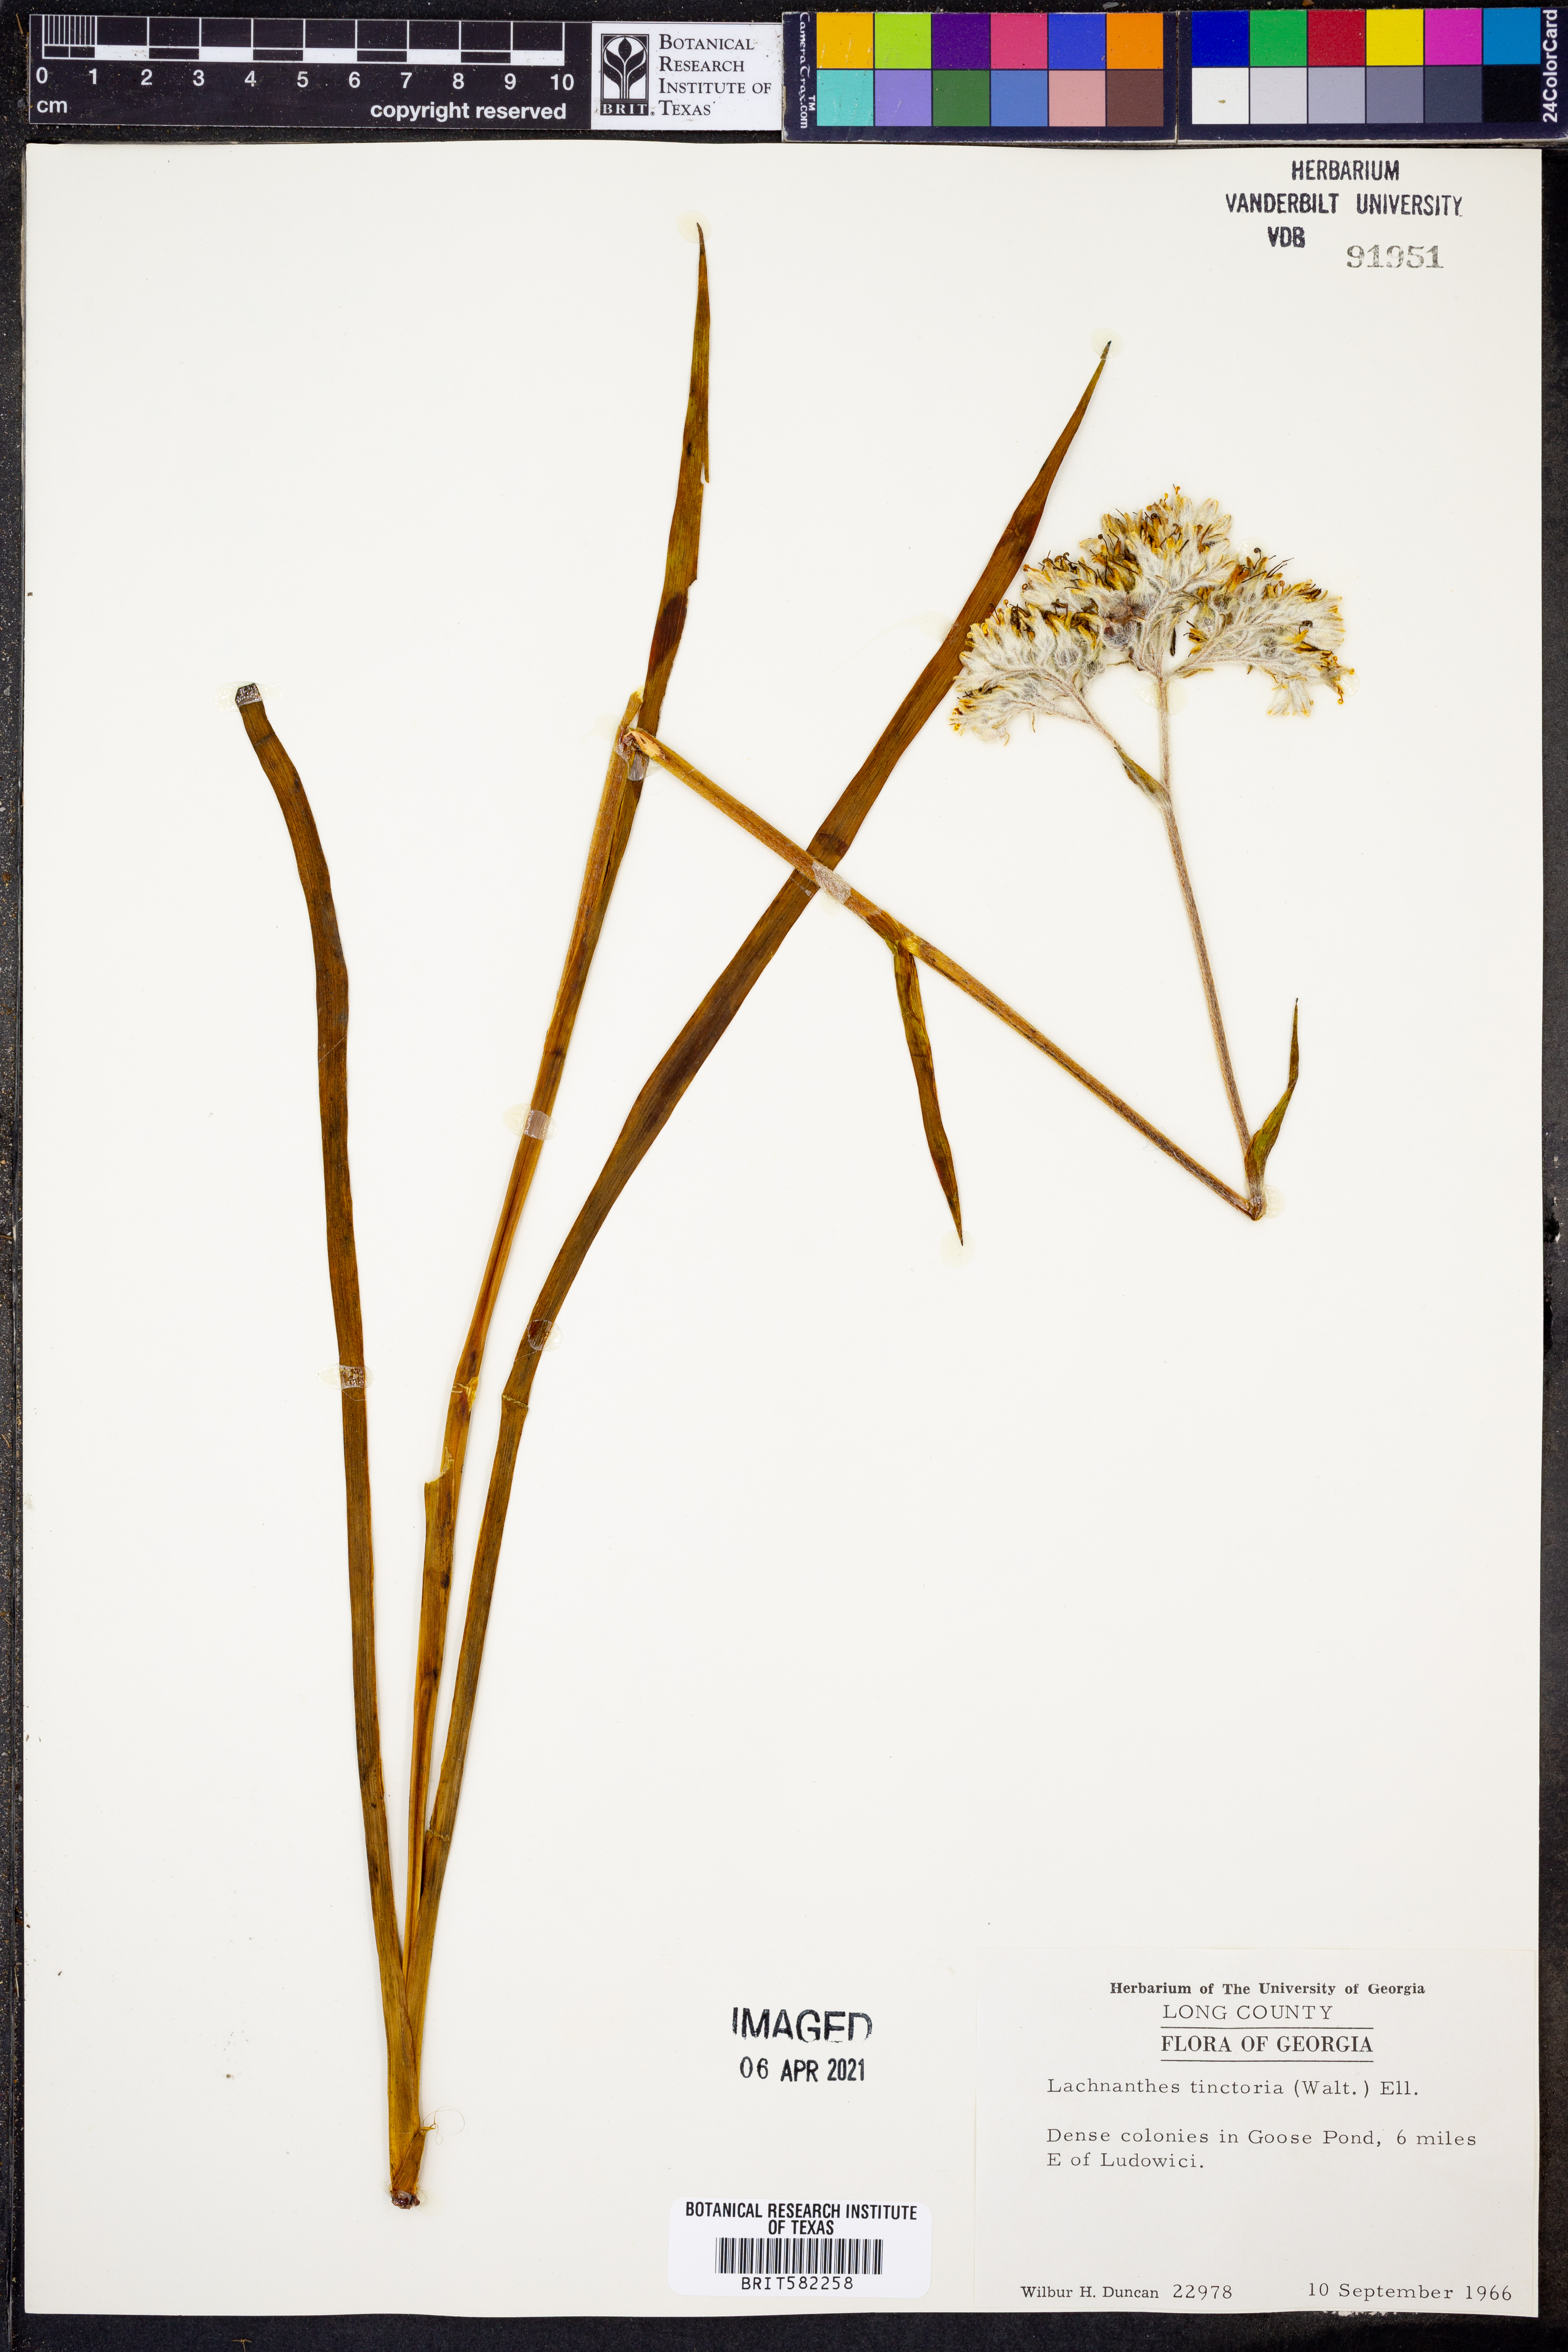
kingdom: Plantae
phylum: Tracheophyta
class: Liliopsida
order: Commelinales
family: Haemodoraceae
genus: Lachnanthes
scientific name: Lachnanthes caroliniana
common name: Carolina redroot
